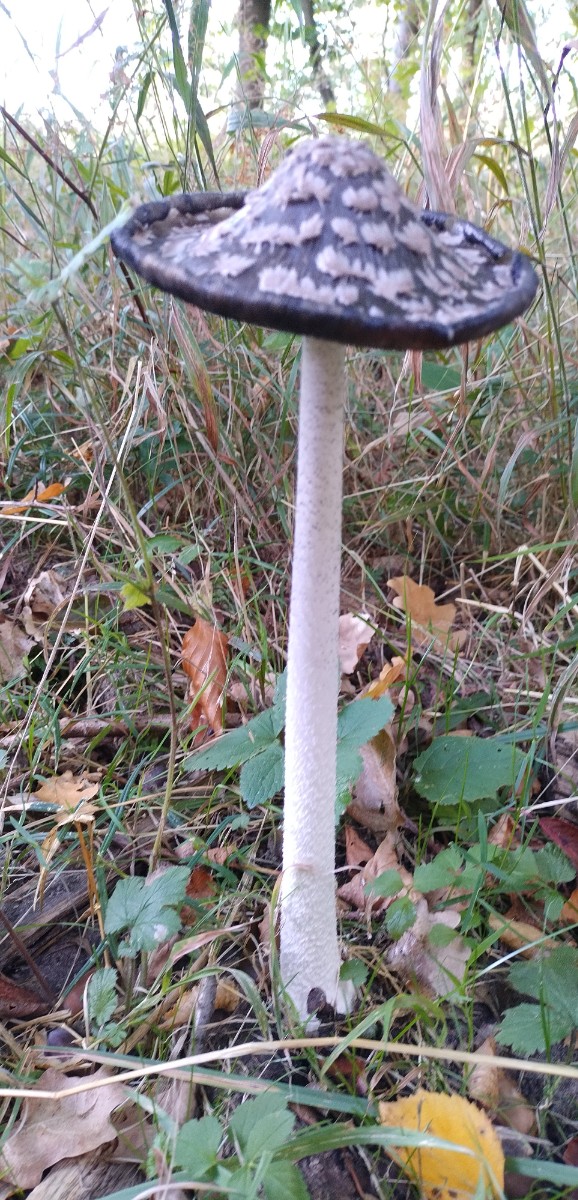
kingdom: Fungi
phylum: Basidiomycota
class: Agaricomycetes
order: Agaricales
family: Psathyrellaceae
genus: Coprinopsis
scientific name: Coprinopsis picacea
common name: skade-blækhat
